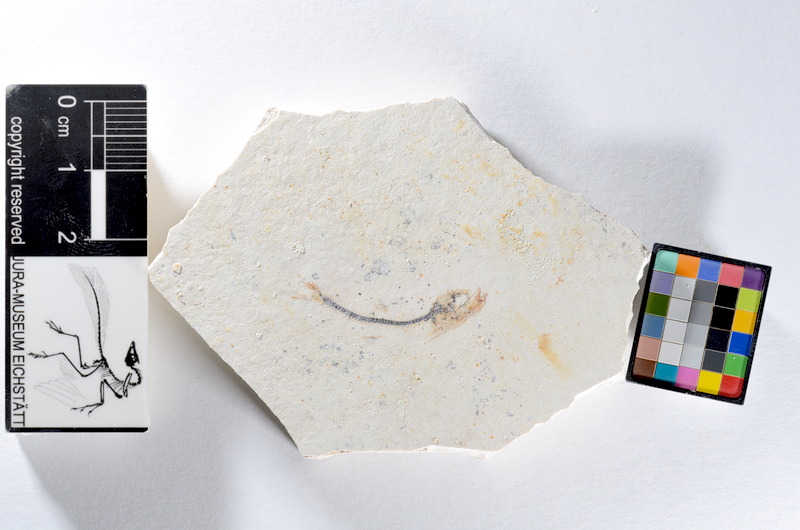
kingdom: Animalia
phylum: Chordata
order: Salmoniformes
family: Orthogonikleithridae
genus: Orthogonikleithrus
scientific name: Orthogonikleithrus hoelli
